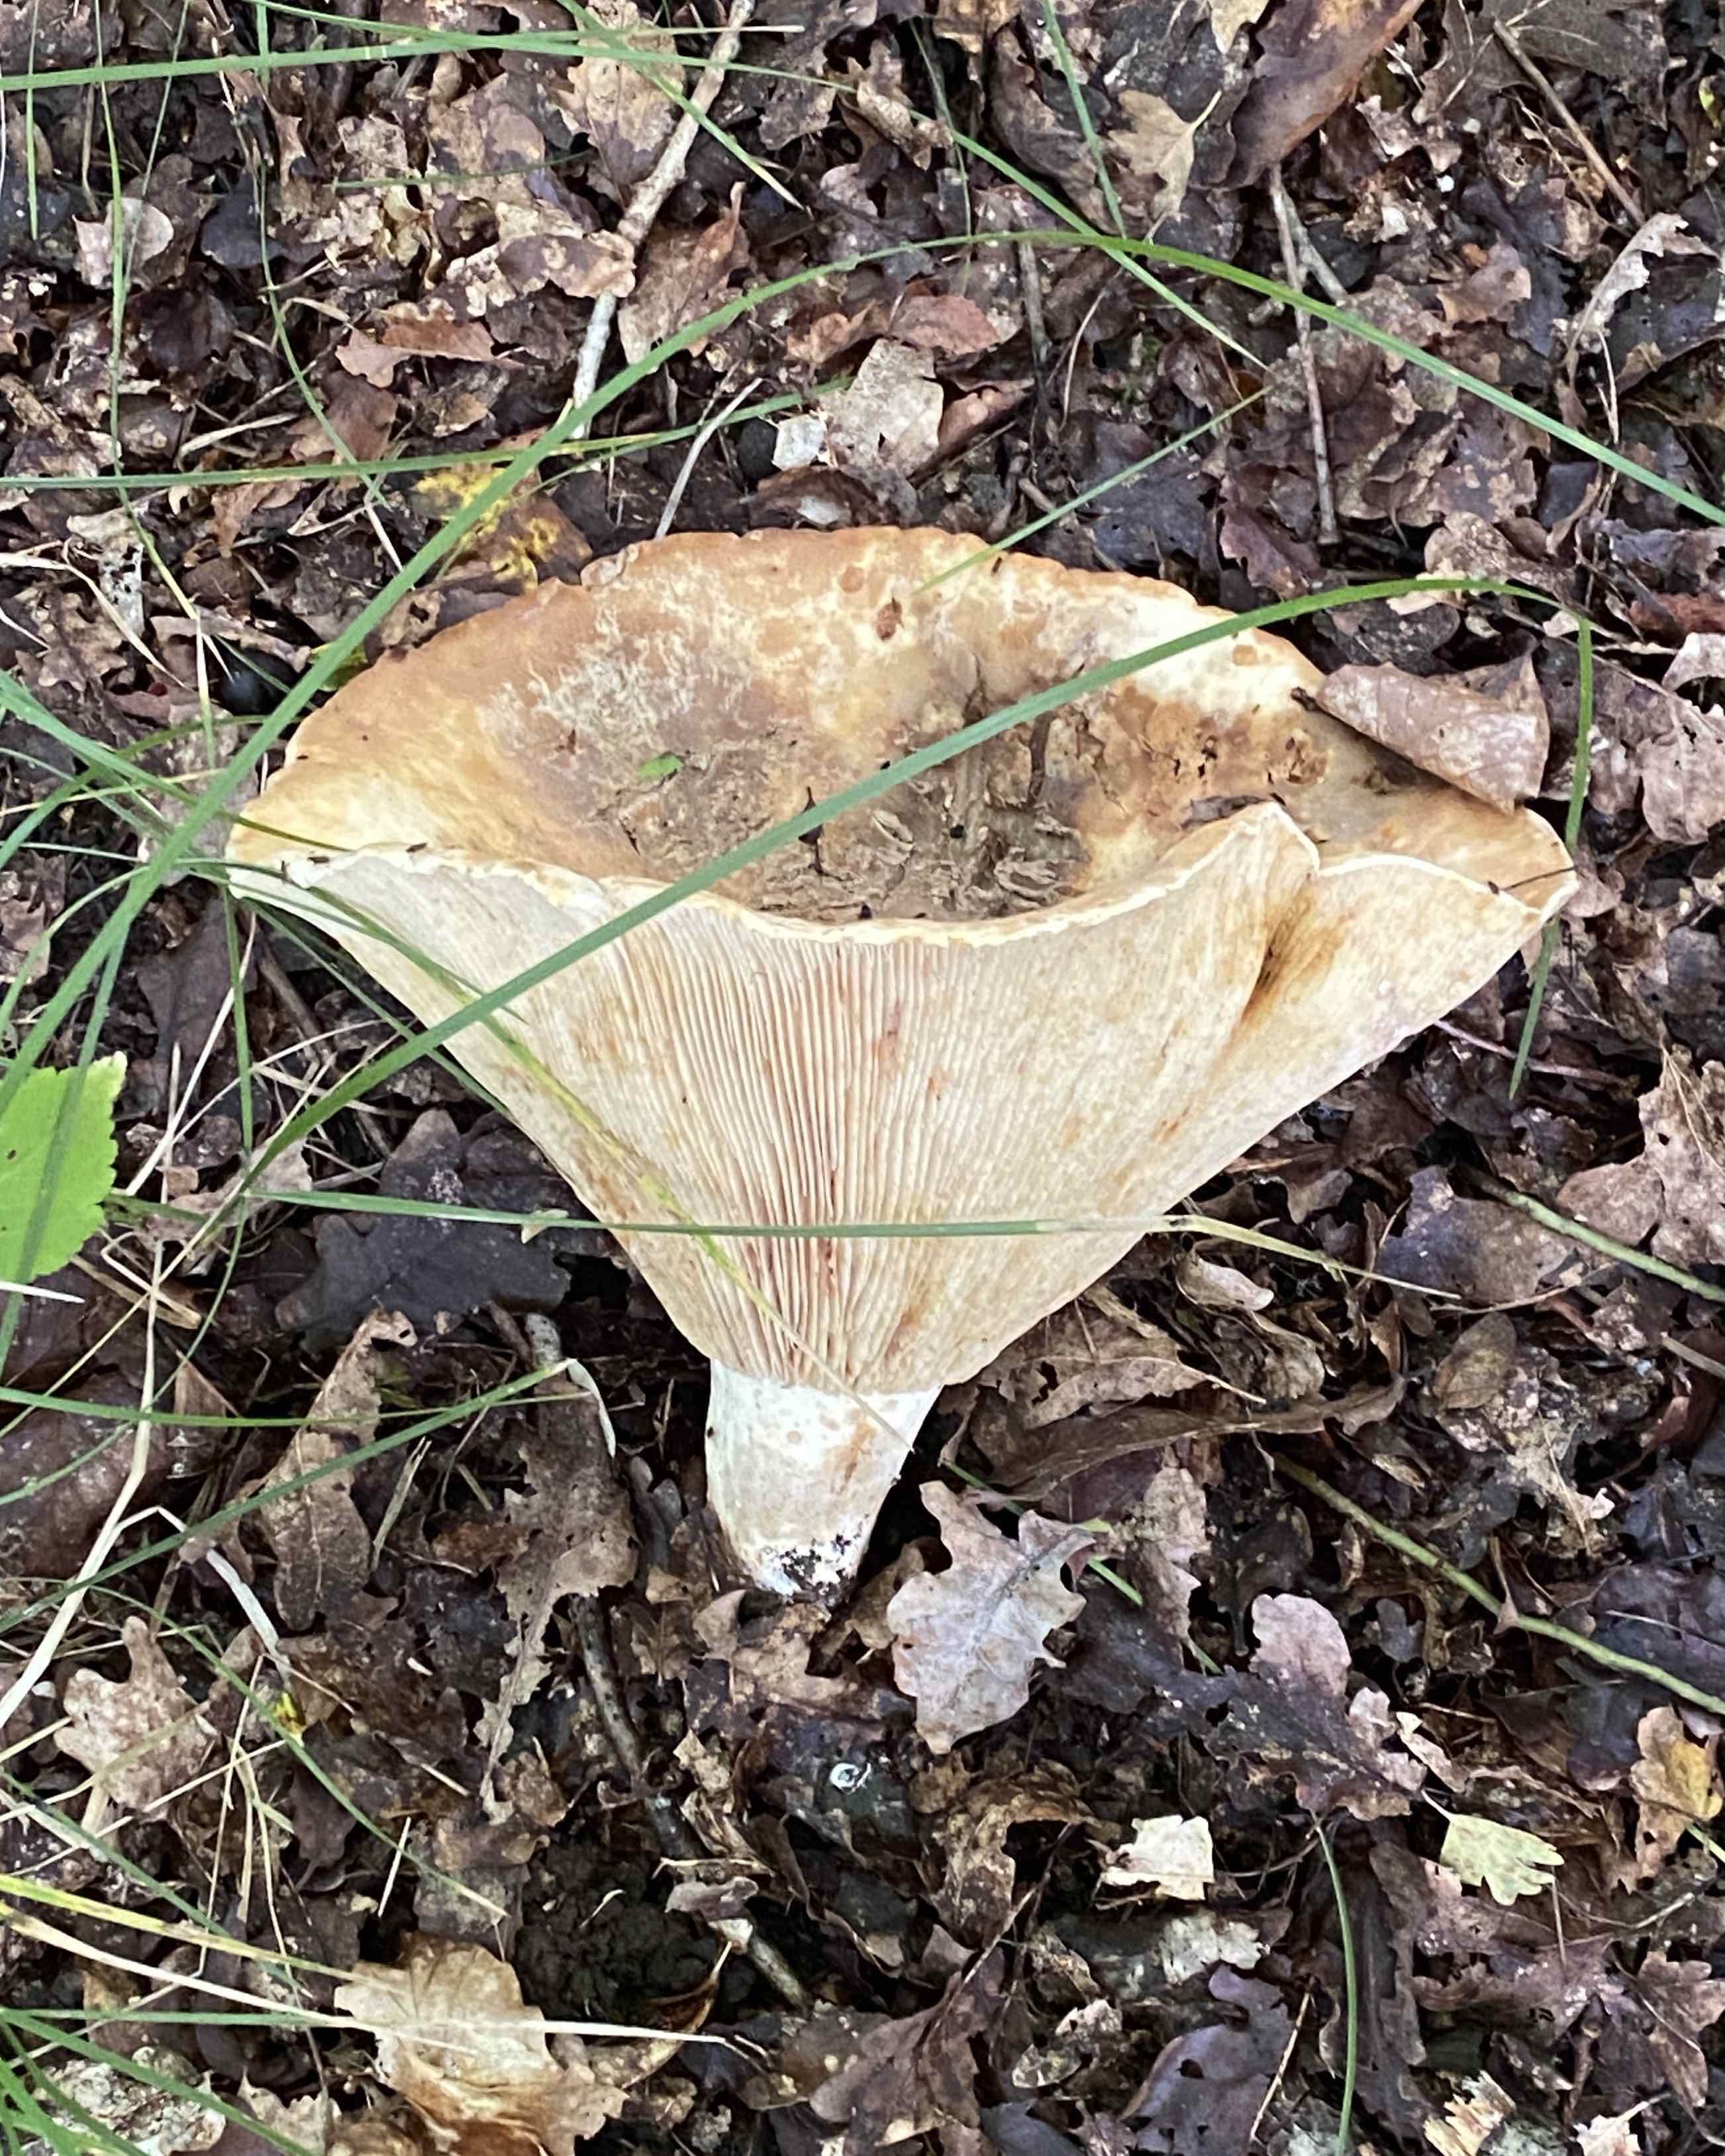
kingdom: Fungi
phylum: Basidiomycota
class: Agaricomycetes
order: Russulales
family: Russulaceae
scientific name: Russulaceae
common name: skørhatfamilien
